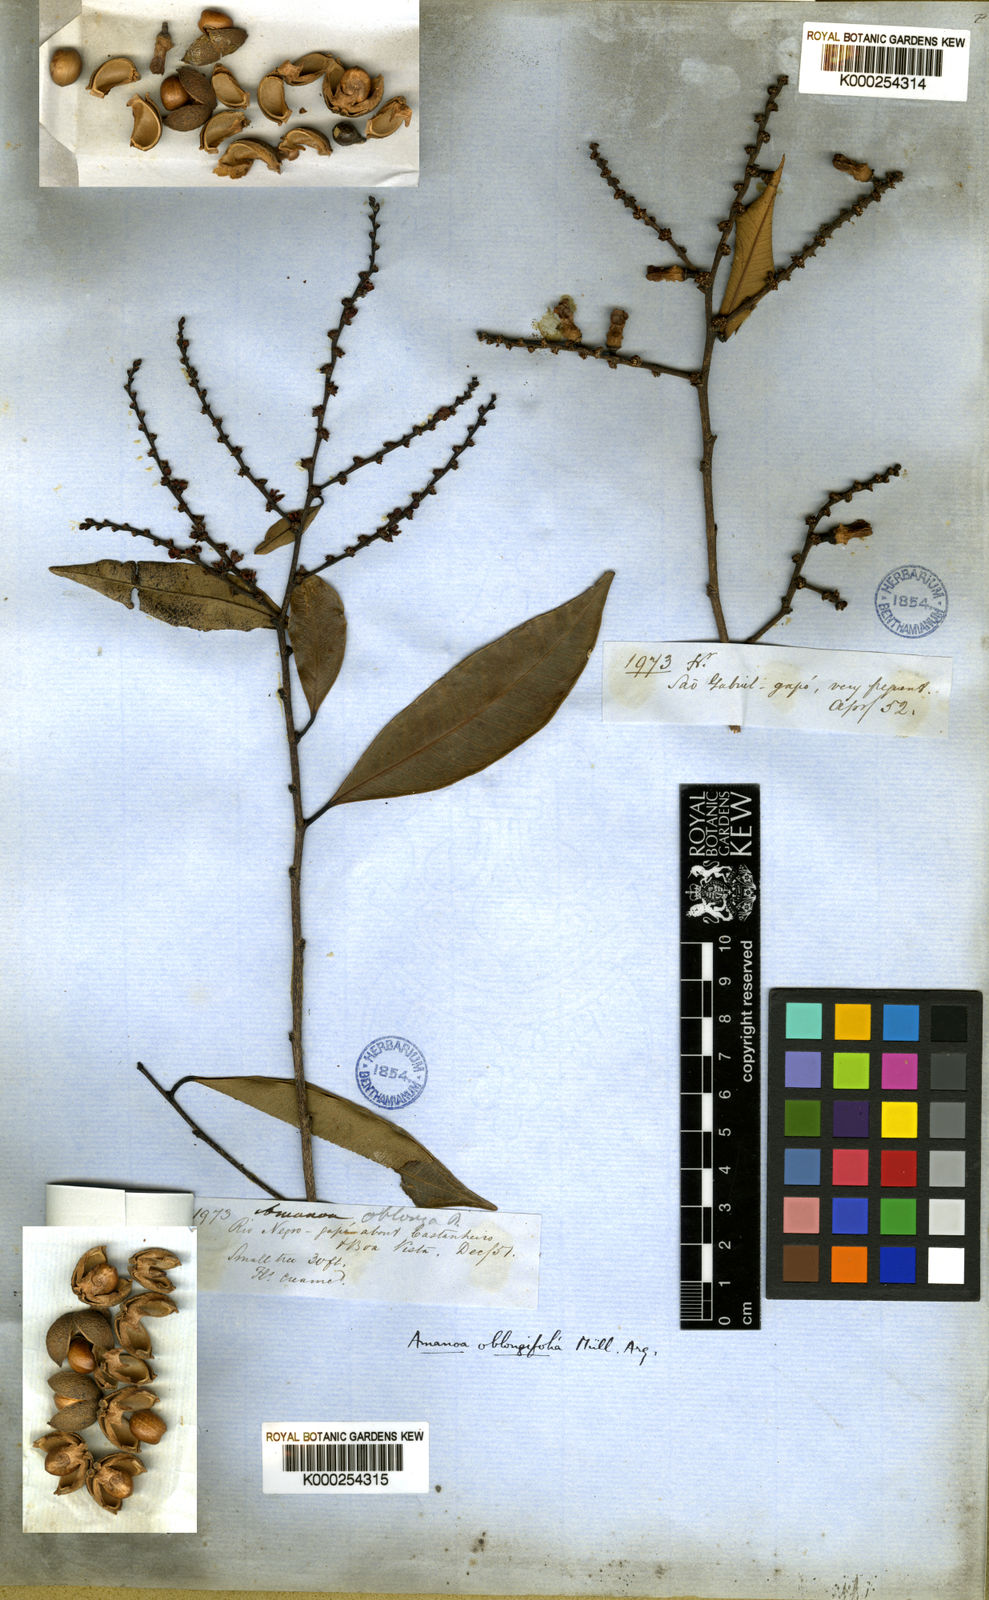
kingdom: Plantae
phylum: Tracheophyta
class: Magnoliopsida
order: Malpighiales
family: Phyllanthaceae
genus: Amanoa
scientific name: Amanoa
